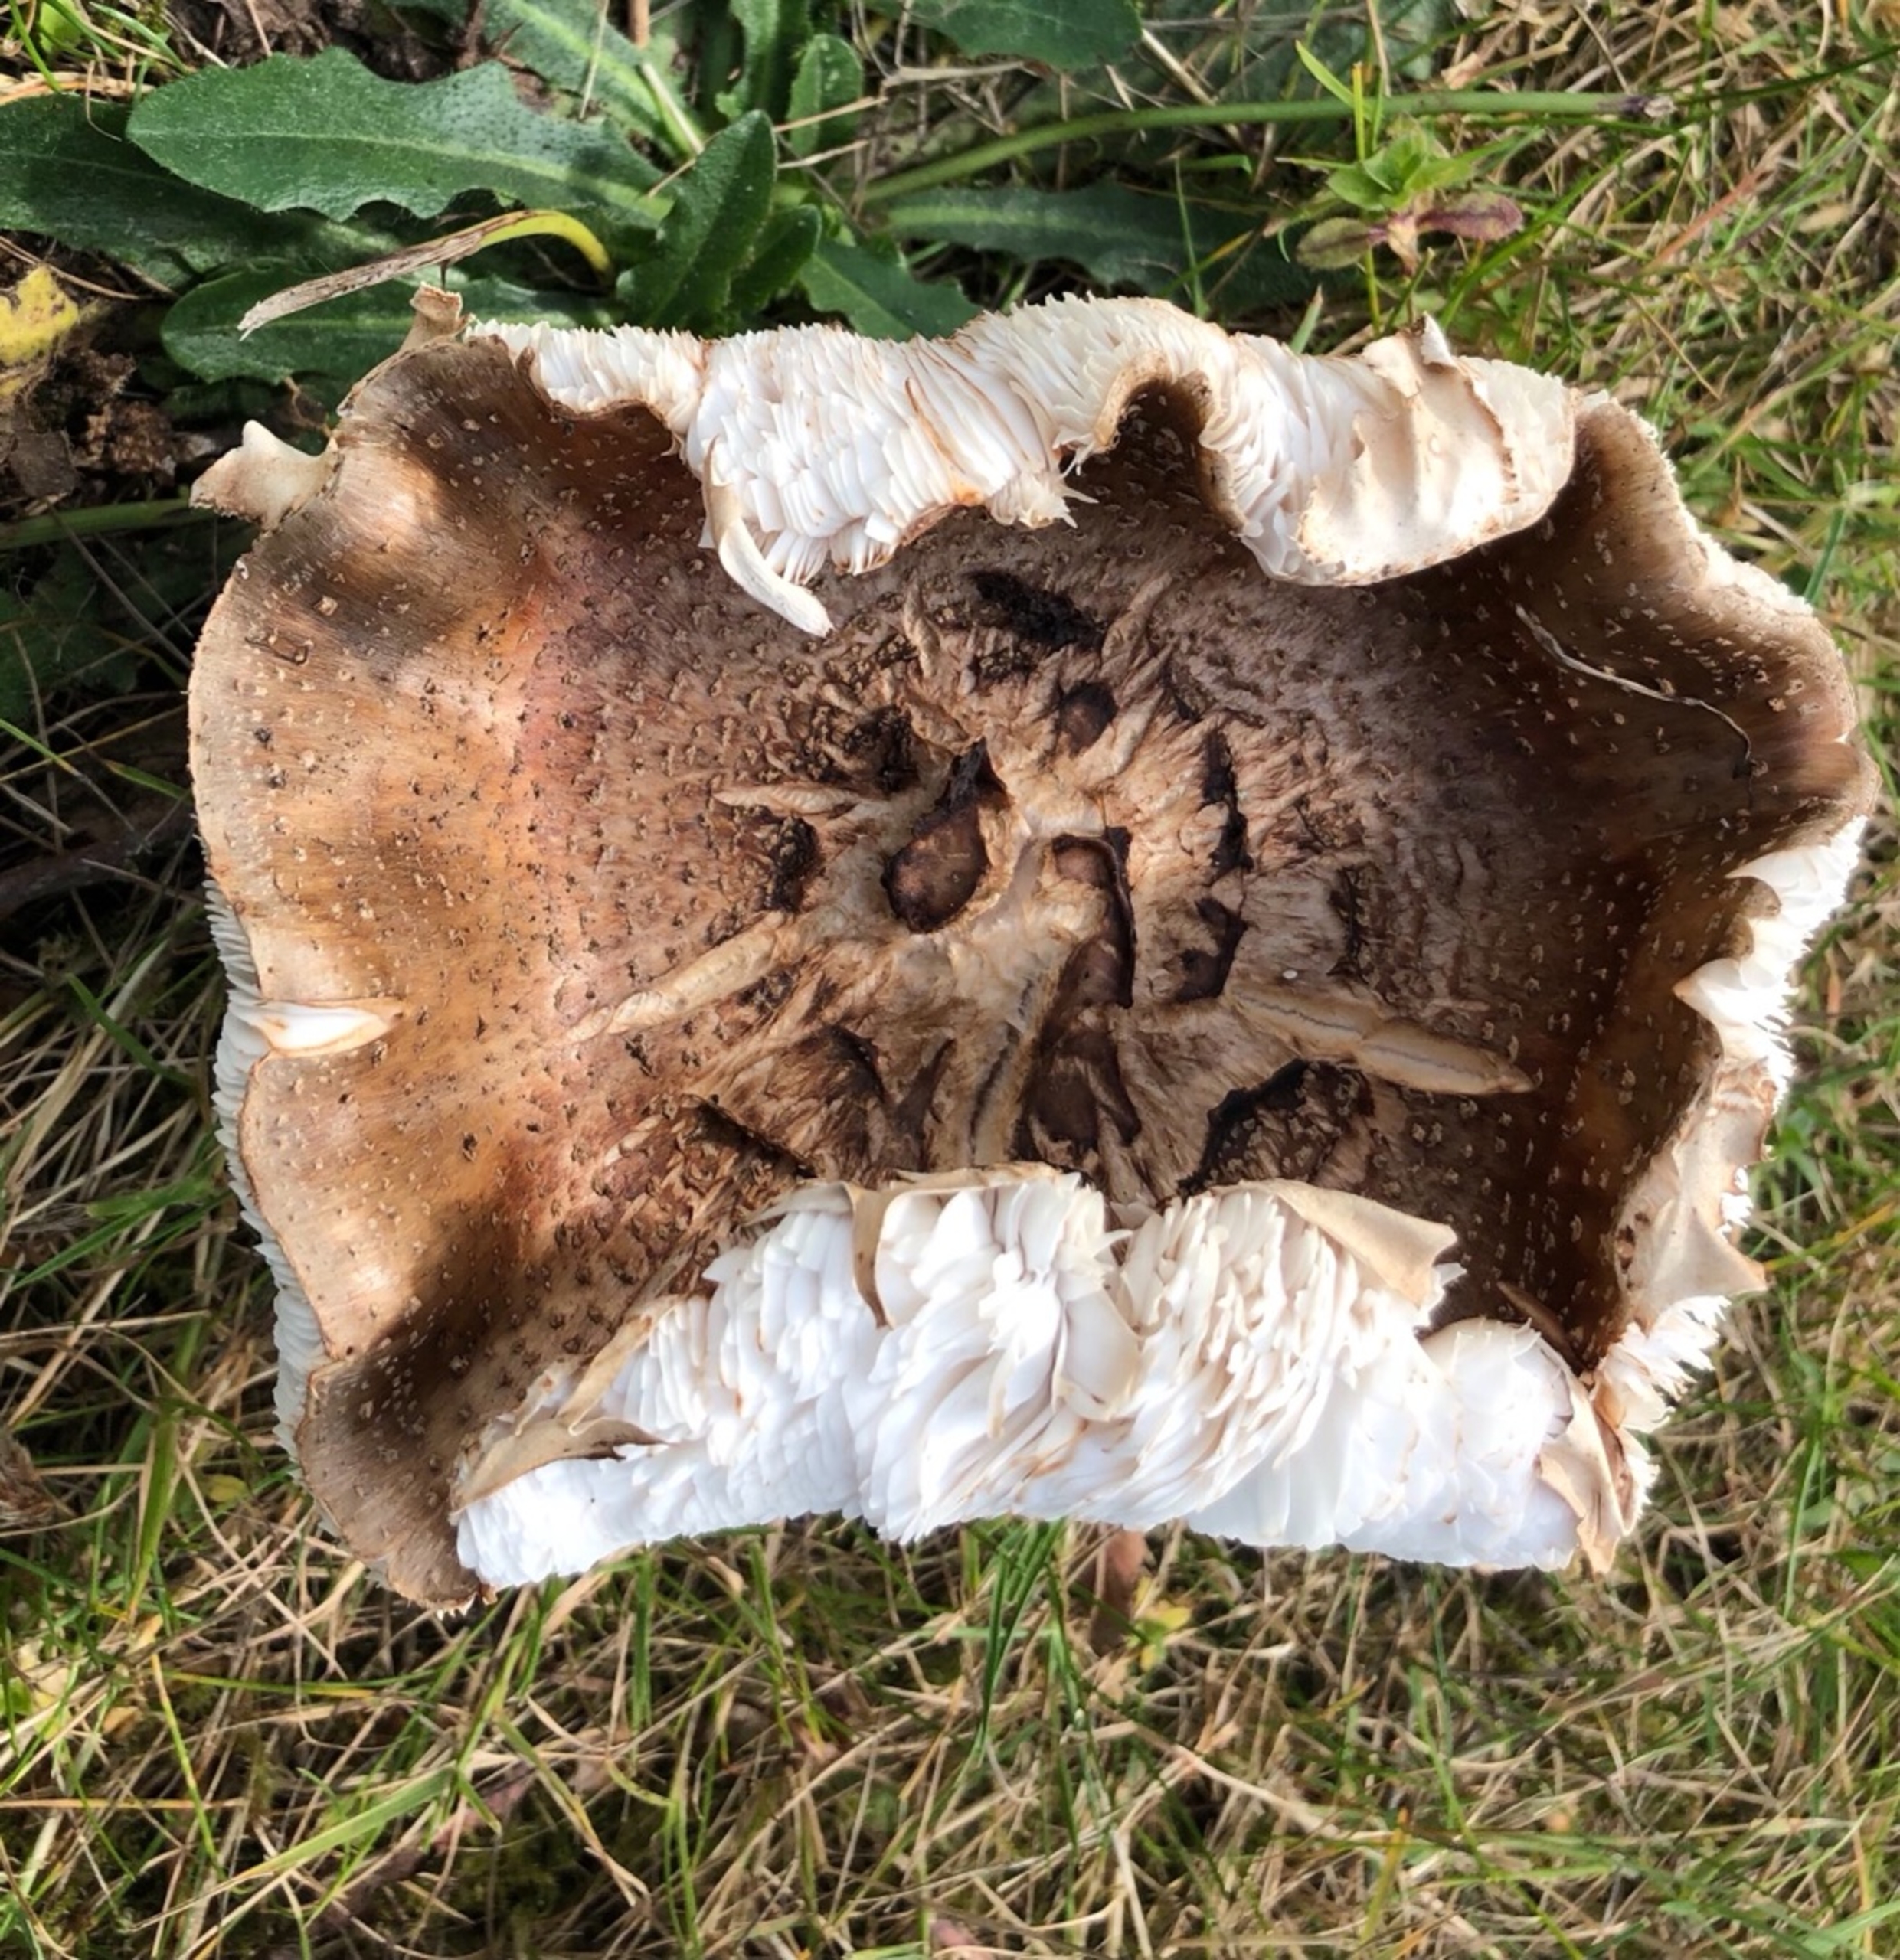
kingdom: Fungi
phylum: Basidiomycota
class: Agaricomycetes
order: Agaricales
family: Amanitaceae
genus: Amanita
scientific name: Amanita rubescens
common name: Rødmende fluesvamp (varietet)
